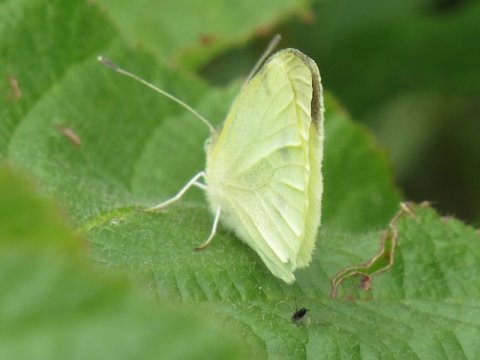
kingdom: Animalia
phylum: Arthropoda
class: Insecta
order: Lepidoptera
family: Pieridae
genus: Pieris
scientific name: Pieris rapae
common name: Cabbage White
